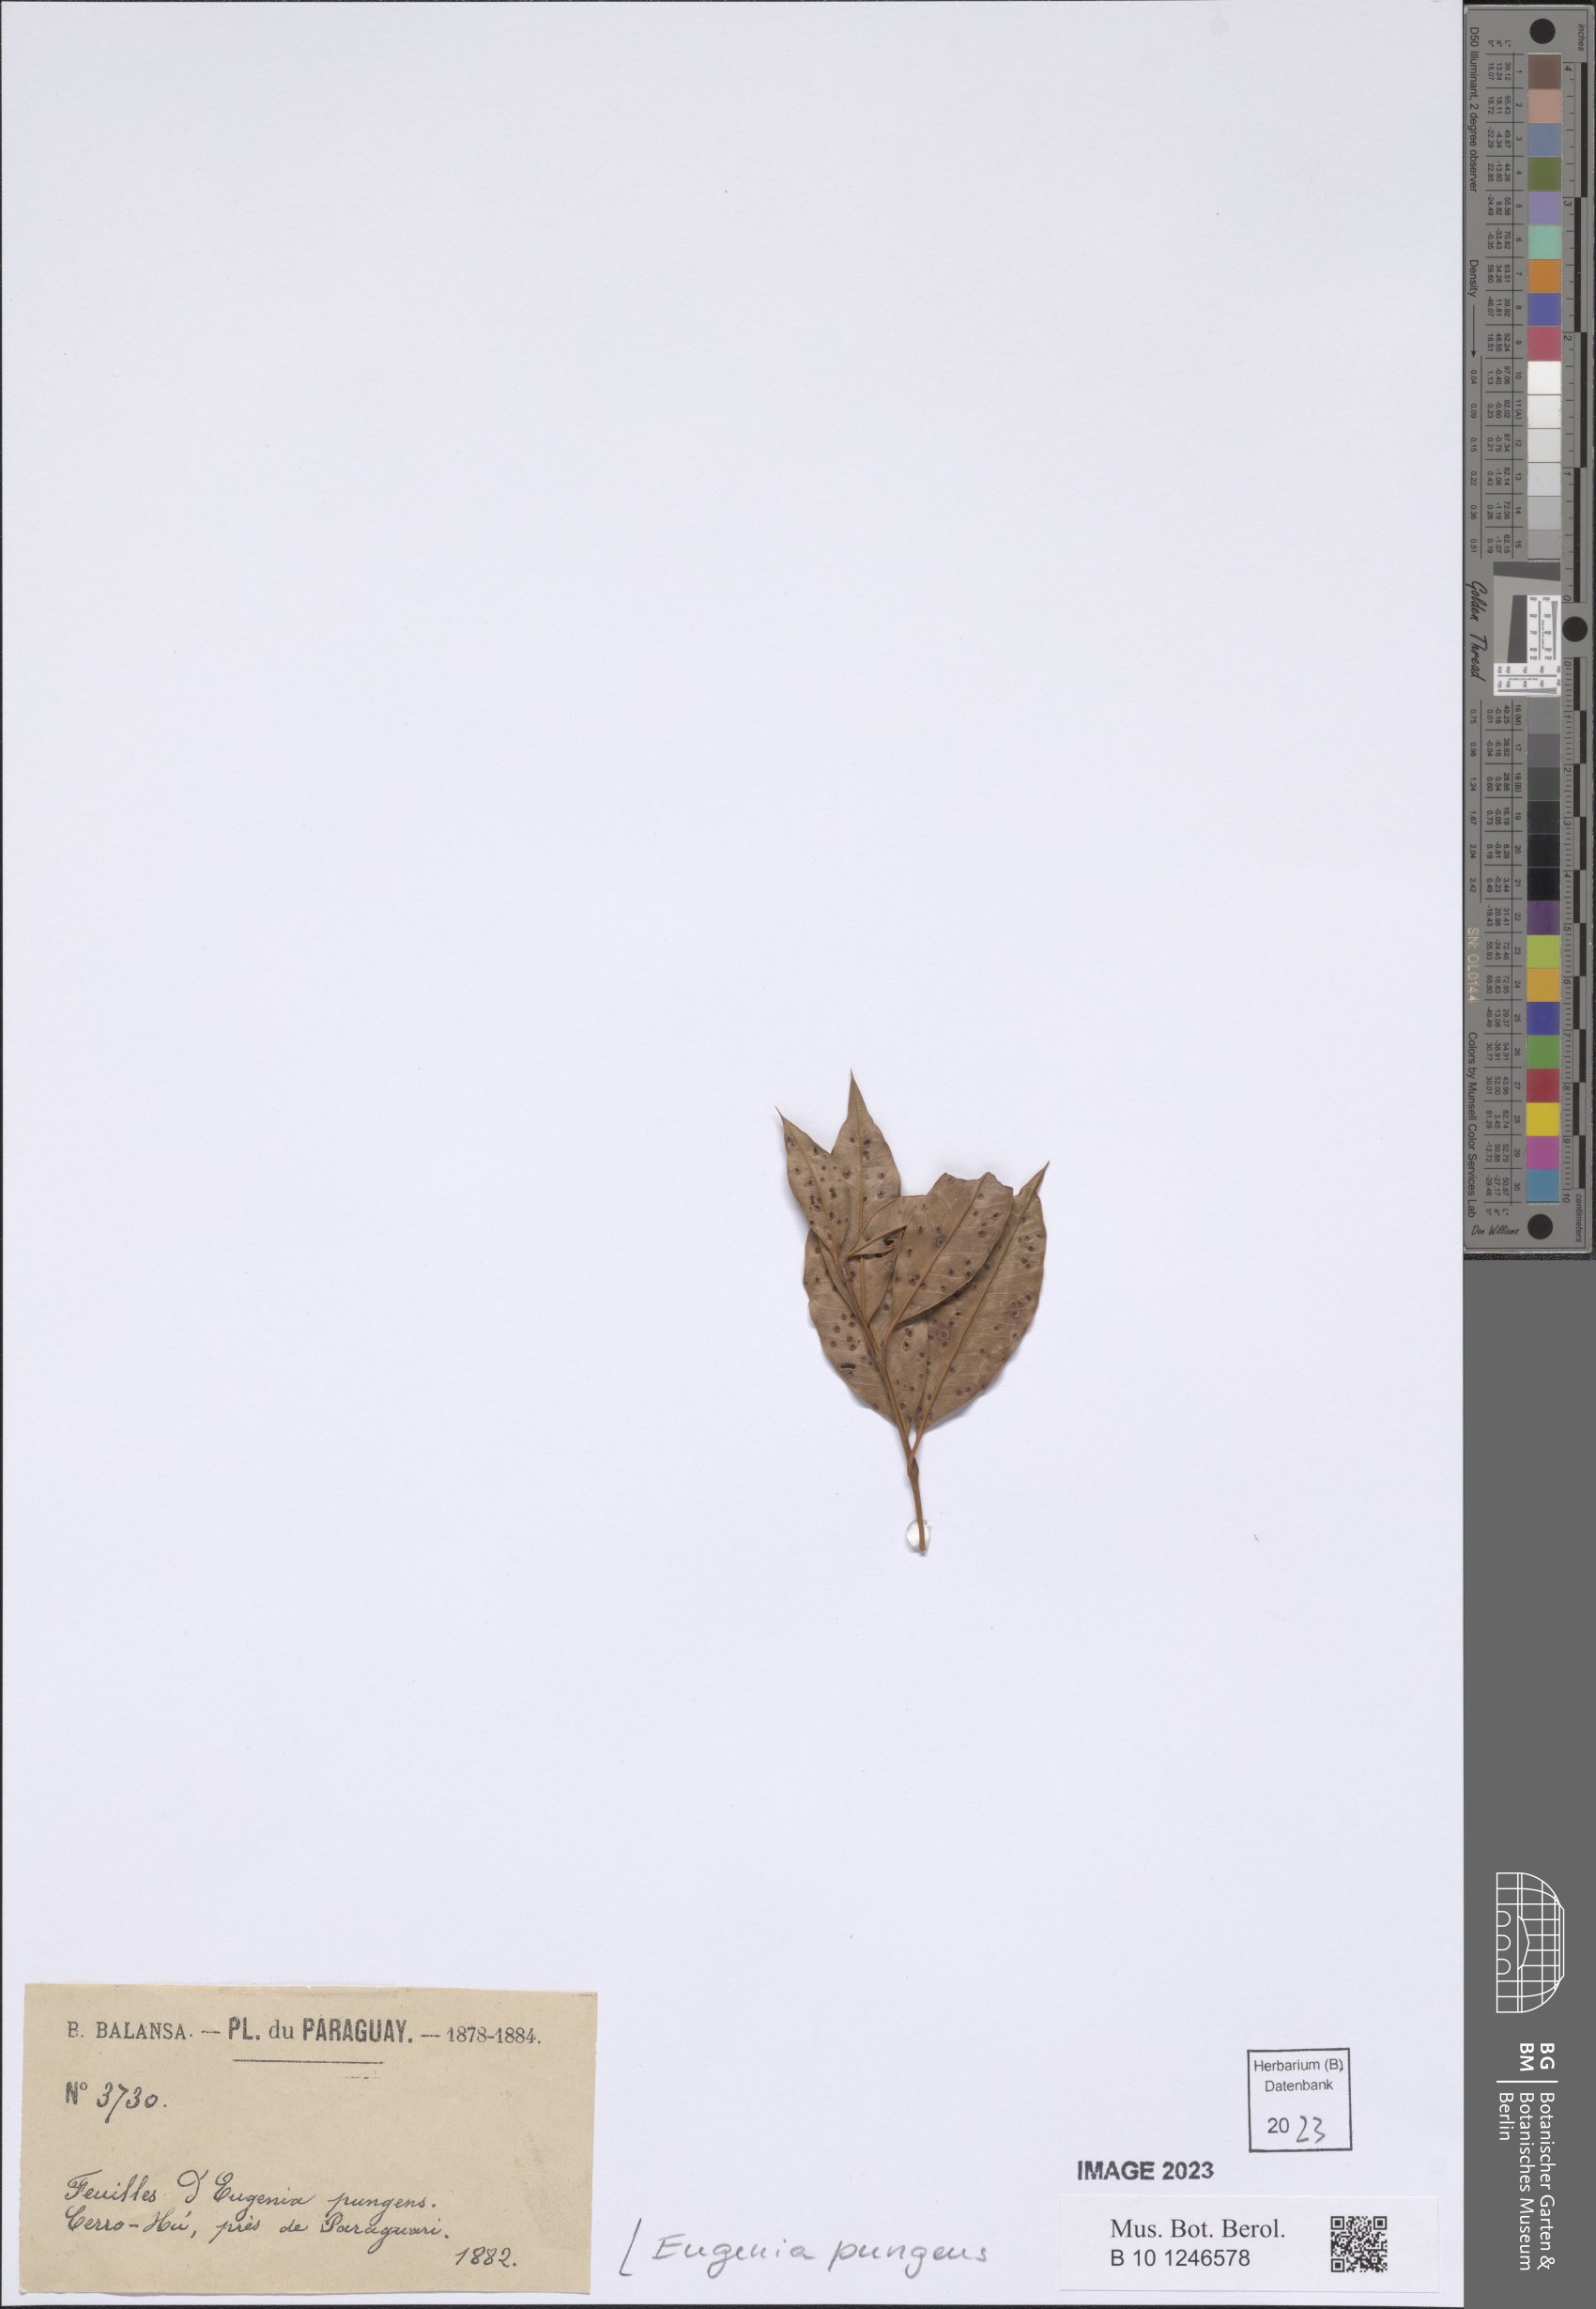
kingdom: Plantae
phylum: Tracheophyta
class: Magnoliopsida
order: Myrtales
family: Myrtaceae
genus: Myrcianthes
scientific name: Myrcianthes pungens
